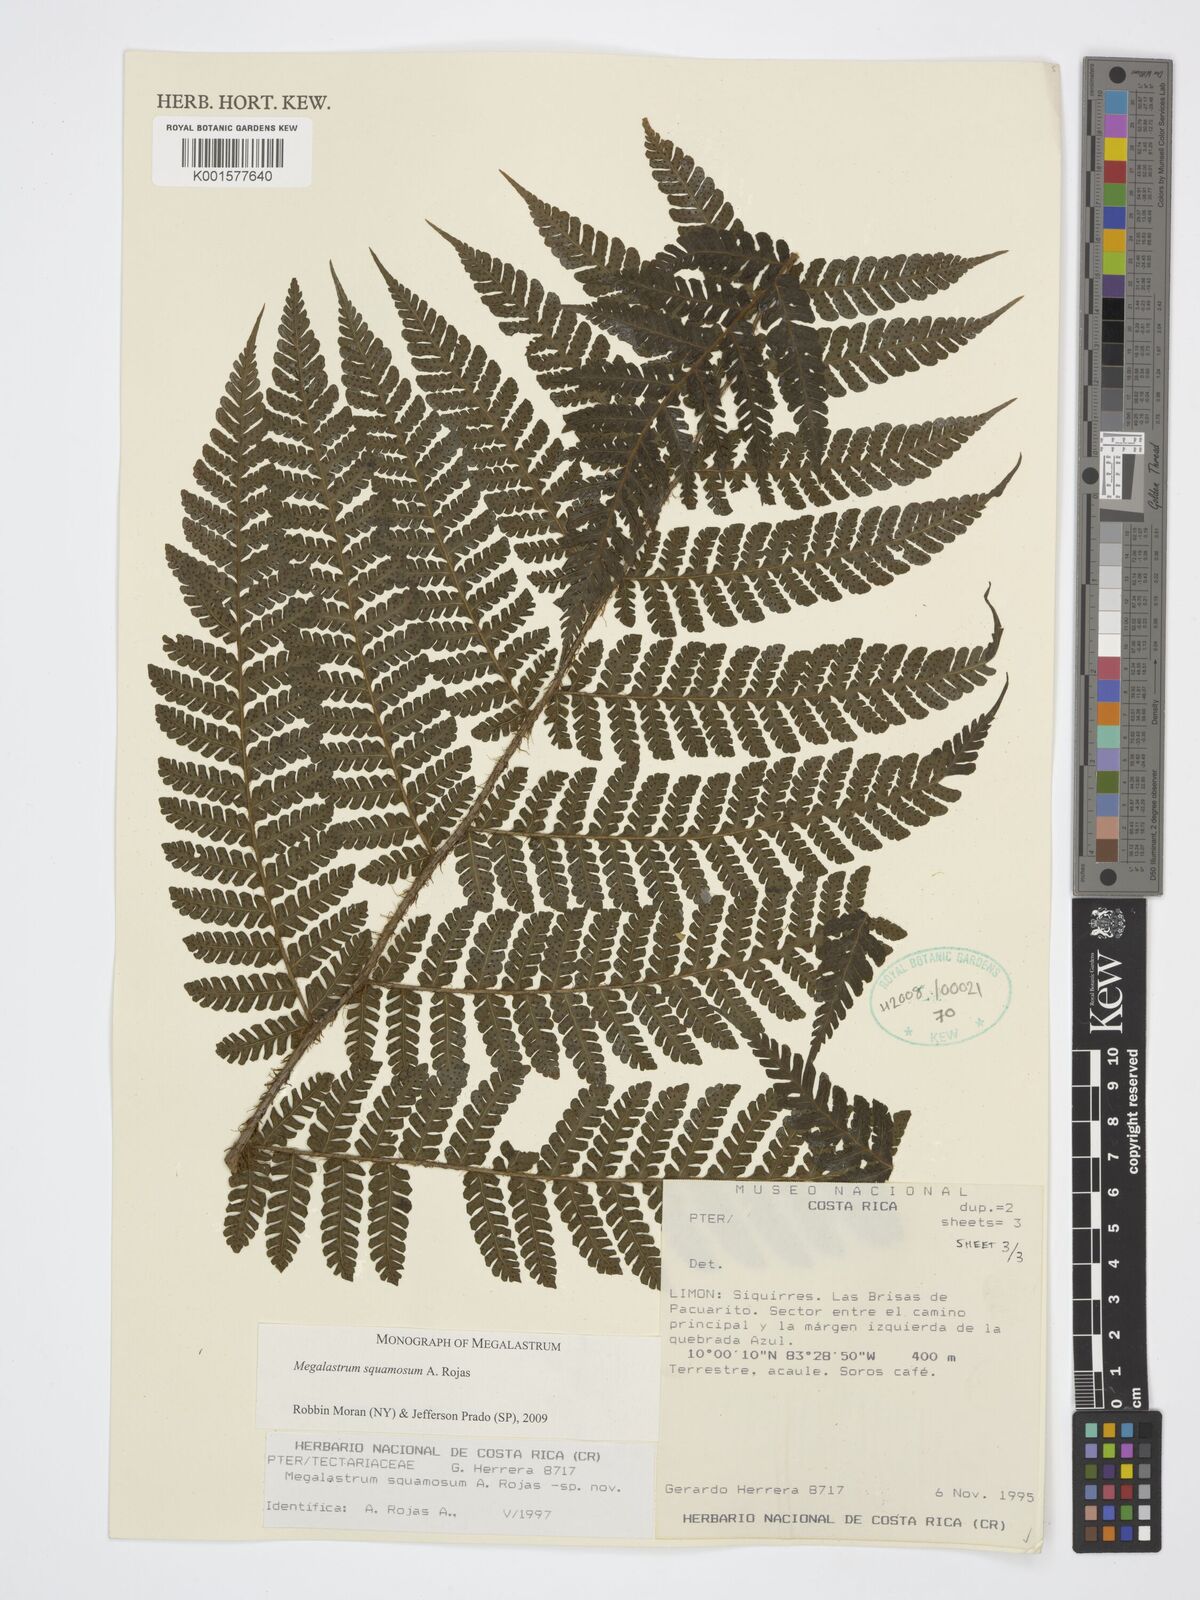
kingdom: Plantae
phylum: Tracheophyta
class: Polypodiopsida
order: Polypodiales
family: Dryopteridaceae
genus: Megalastrum
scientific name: Megalastrum squamosum
